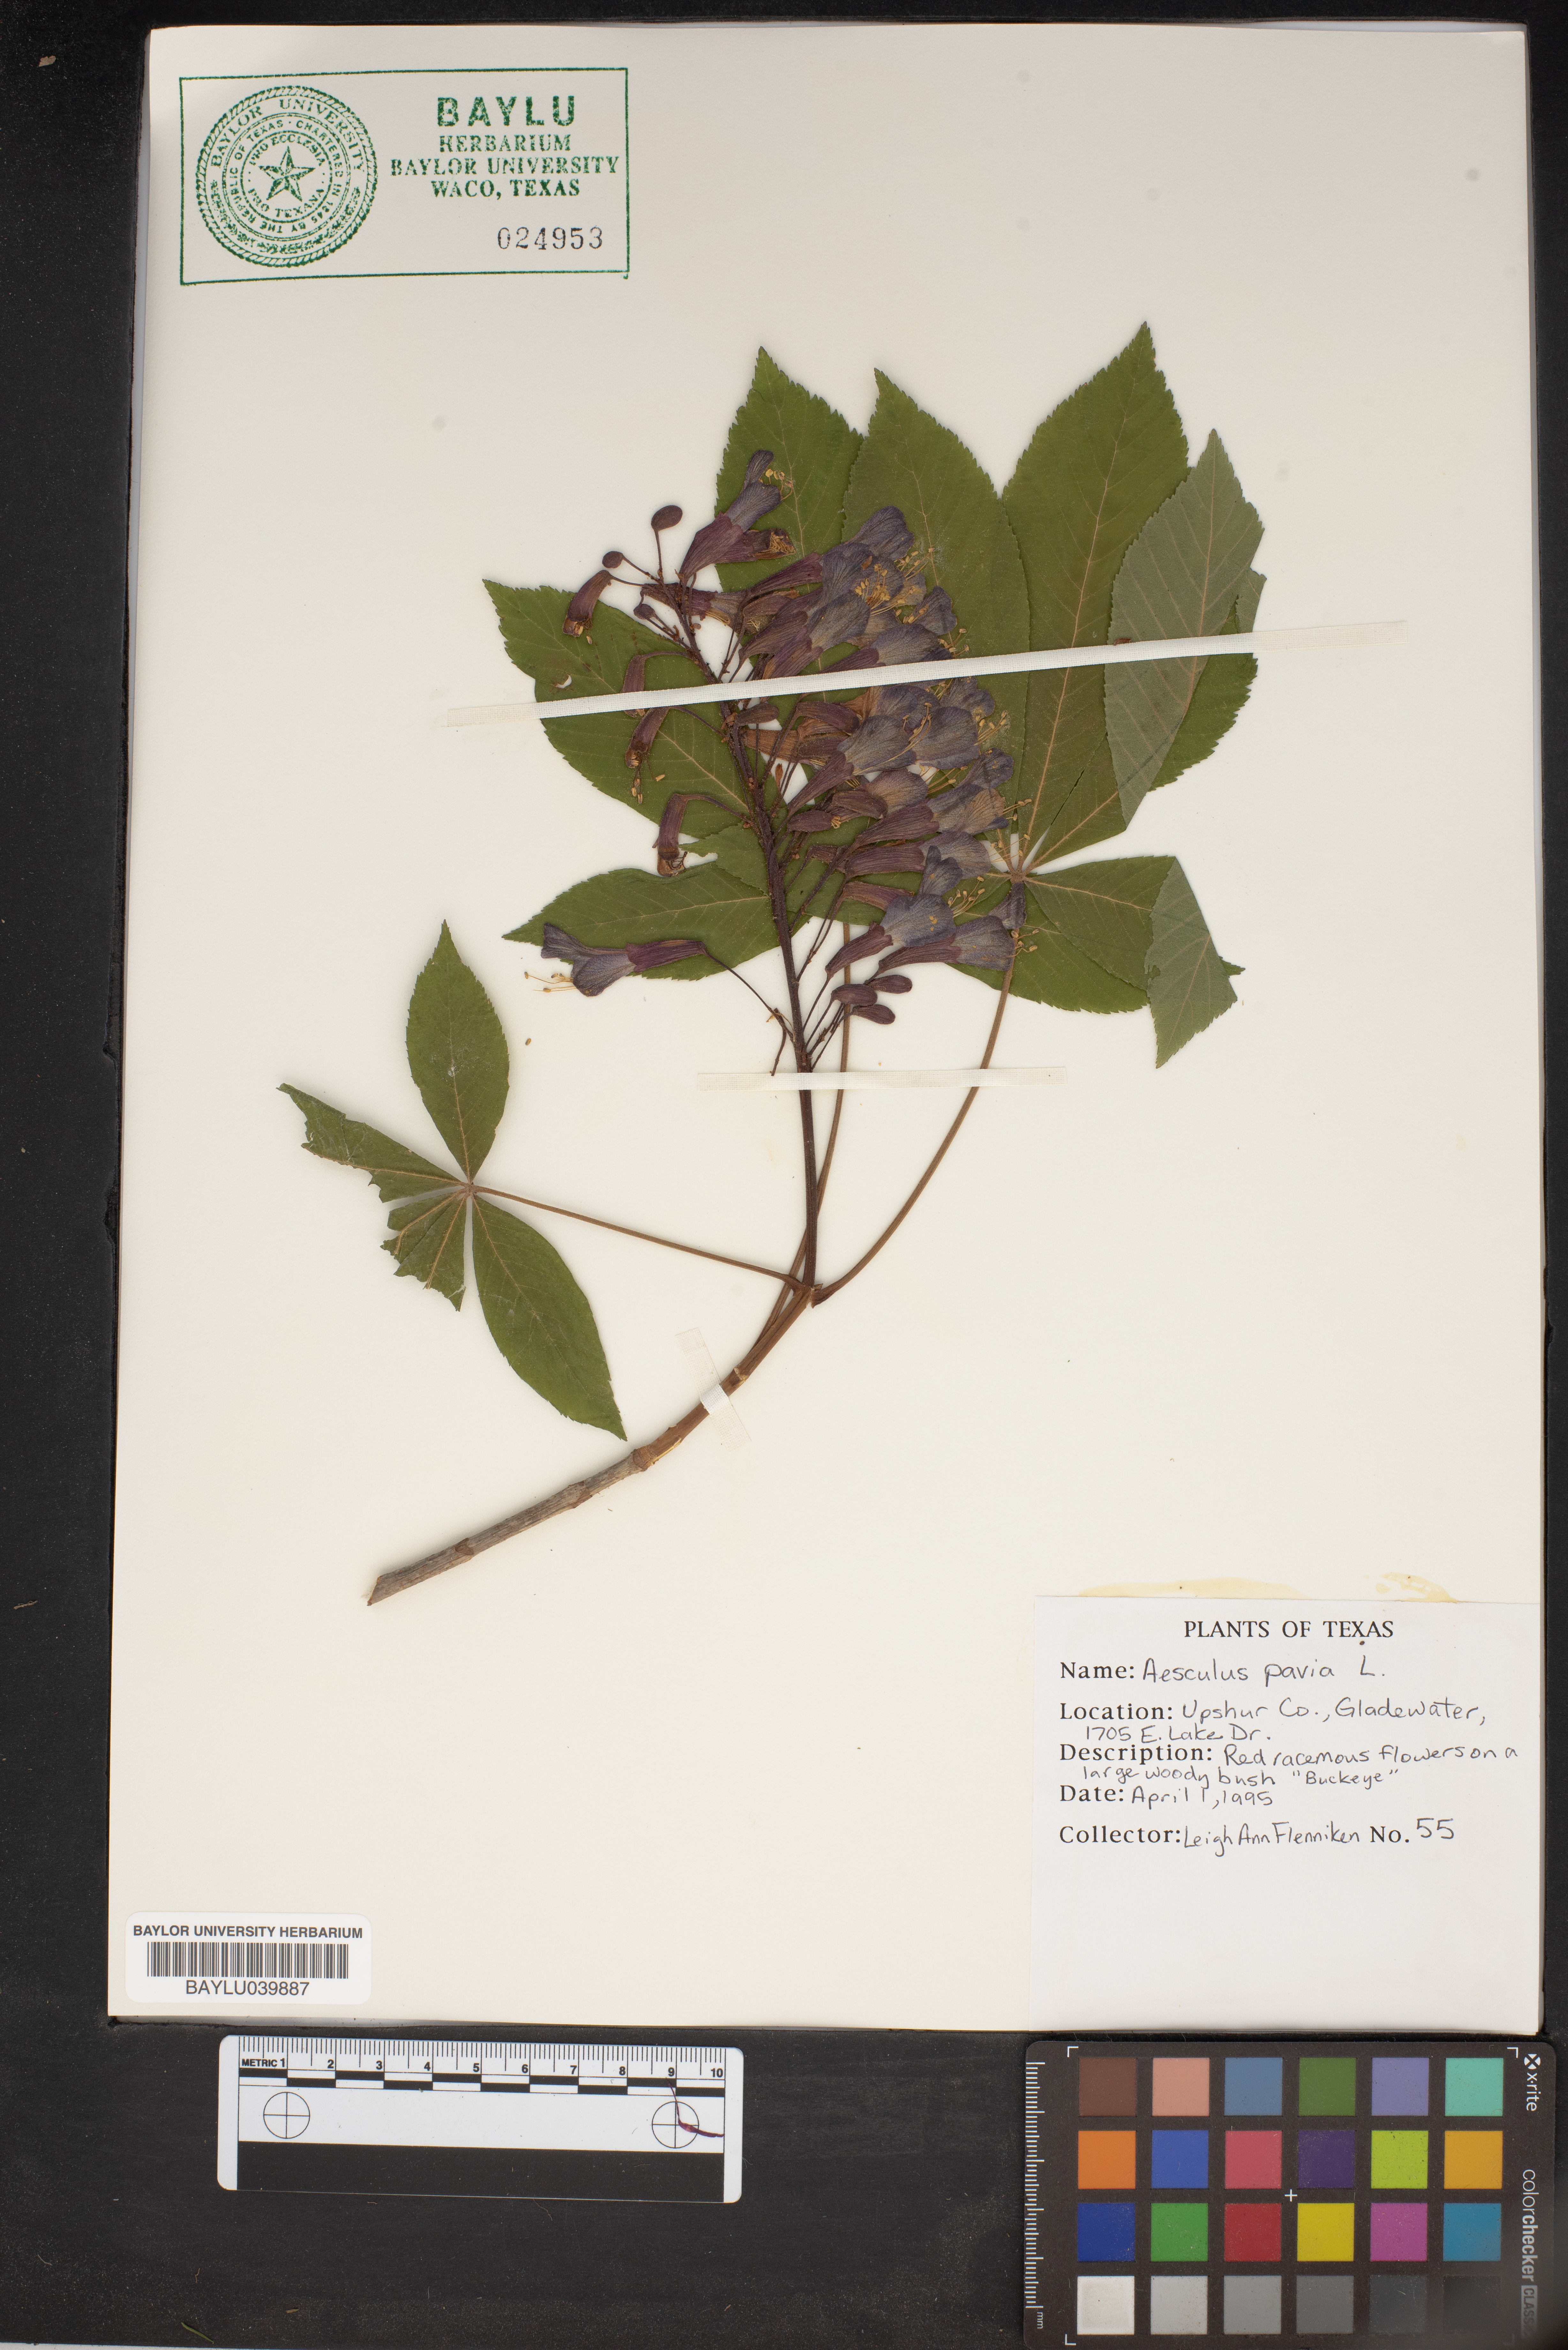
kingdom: Plantae
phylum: Tracheophyta
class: Magnoliopsida
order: Sapindales
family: Sapindaceae
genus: Aesculus
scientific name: Aesculus pavia
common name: Red buckeye
